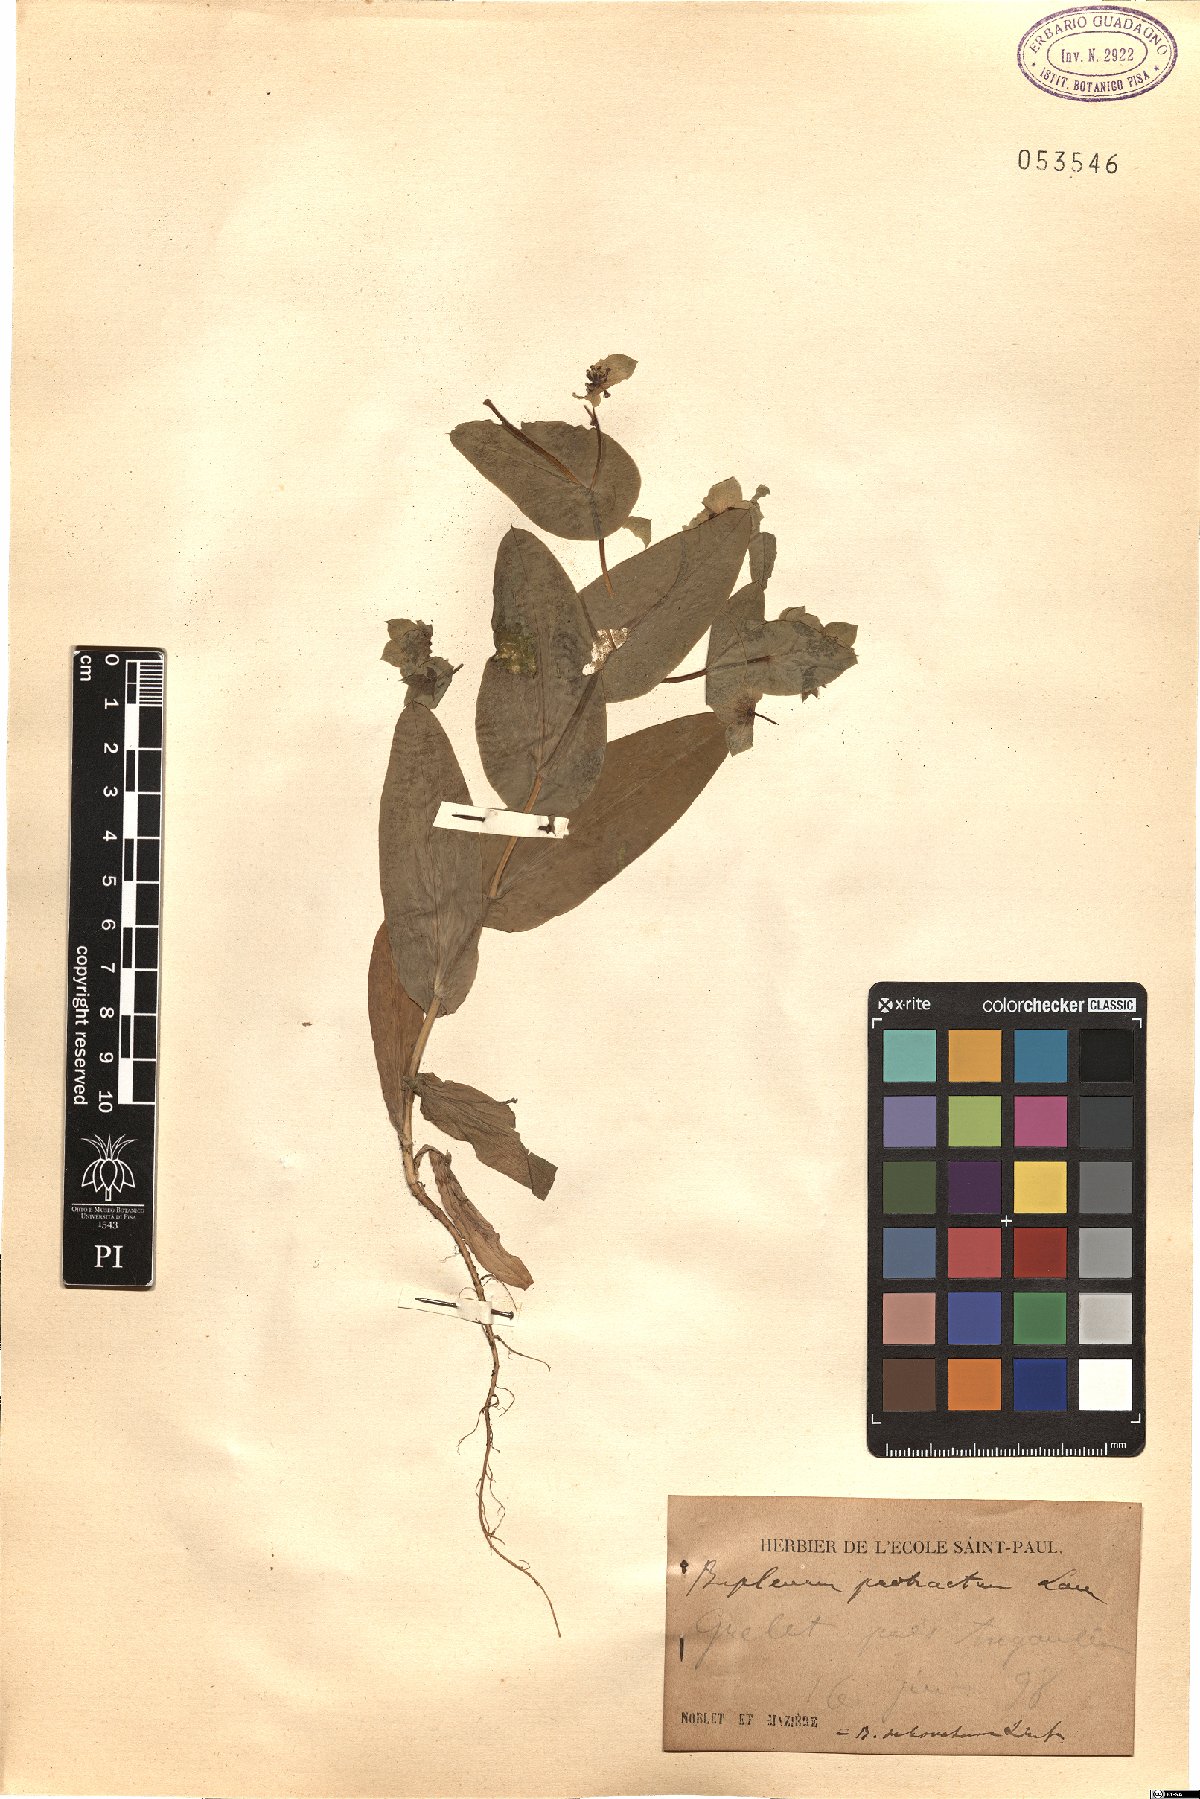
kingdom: Plantae
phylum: Tracheophyta
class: Magnoliopsida
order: Apiales
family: Apiaceae
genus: Bupleurum
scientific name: Bupleurum subovatum
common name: False thorow-wax
